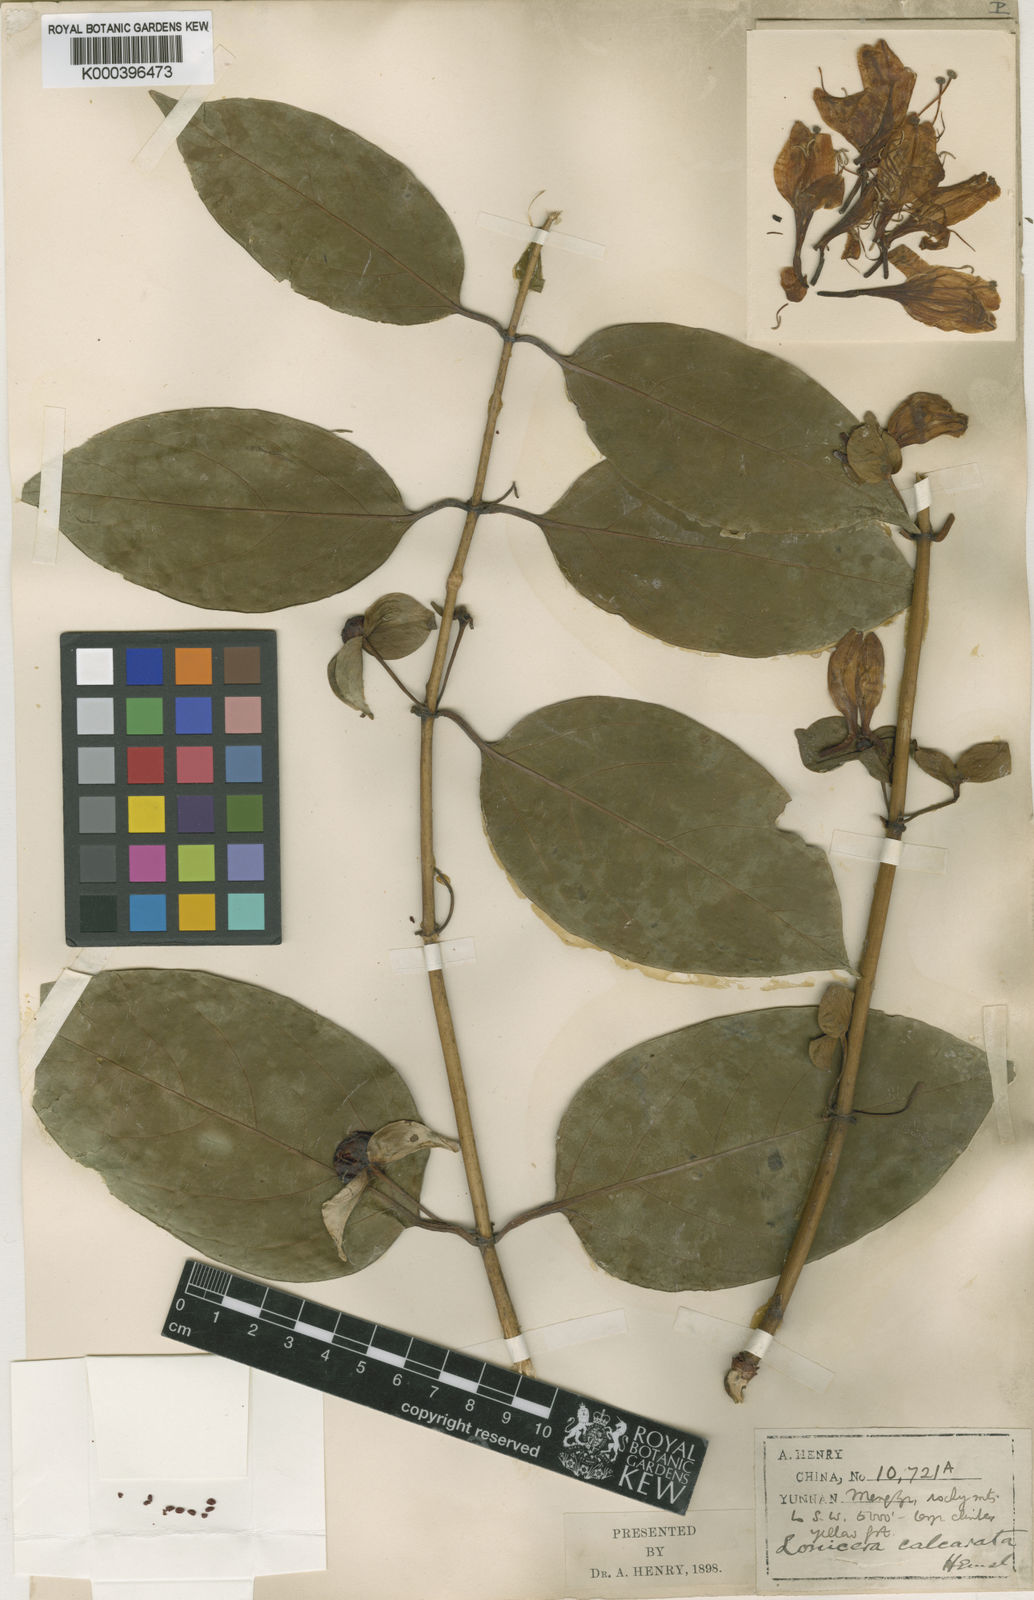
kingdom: Plantae
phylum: Tracheophyta
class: Magnoliopsida
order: Dipsacales
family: Caprifoliaceae
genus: Lonicera
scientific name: Lonicera calcarata
